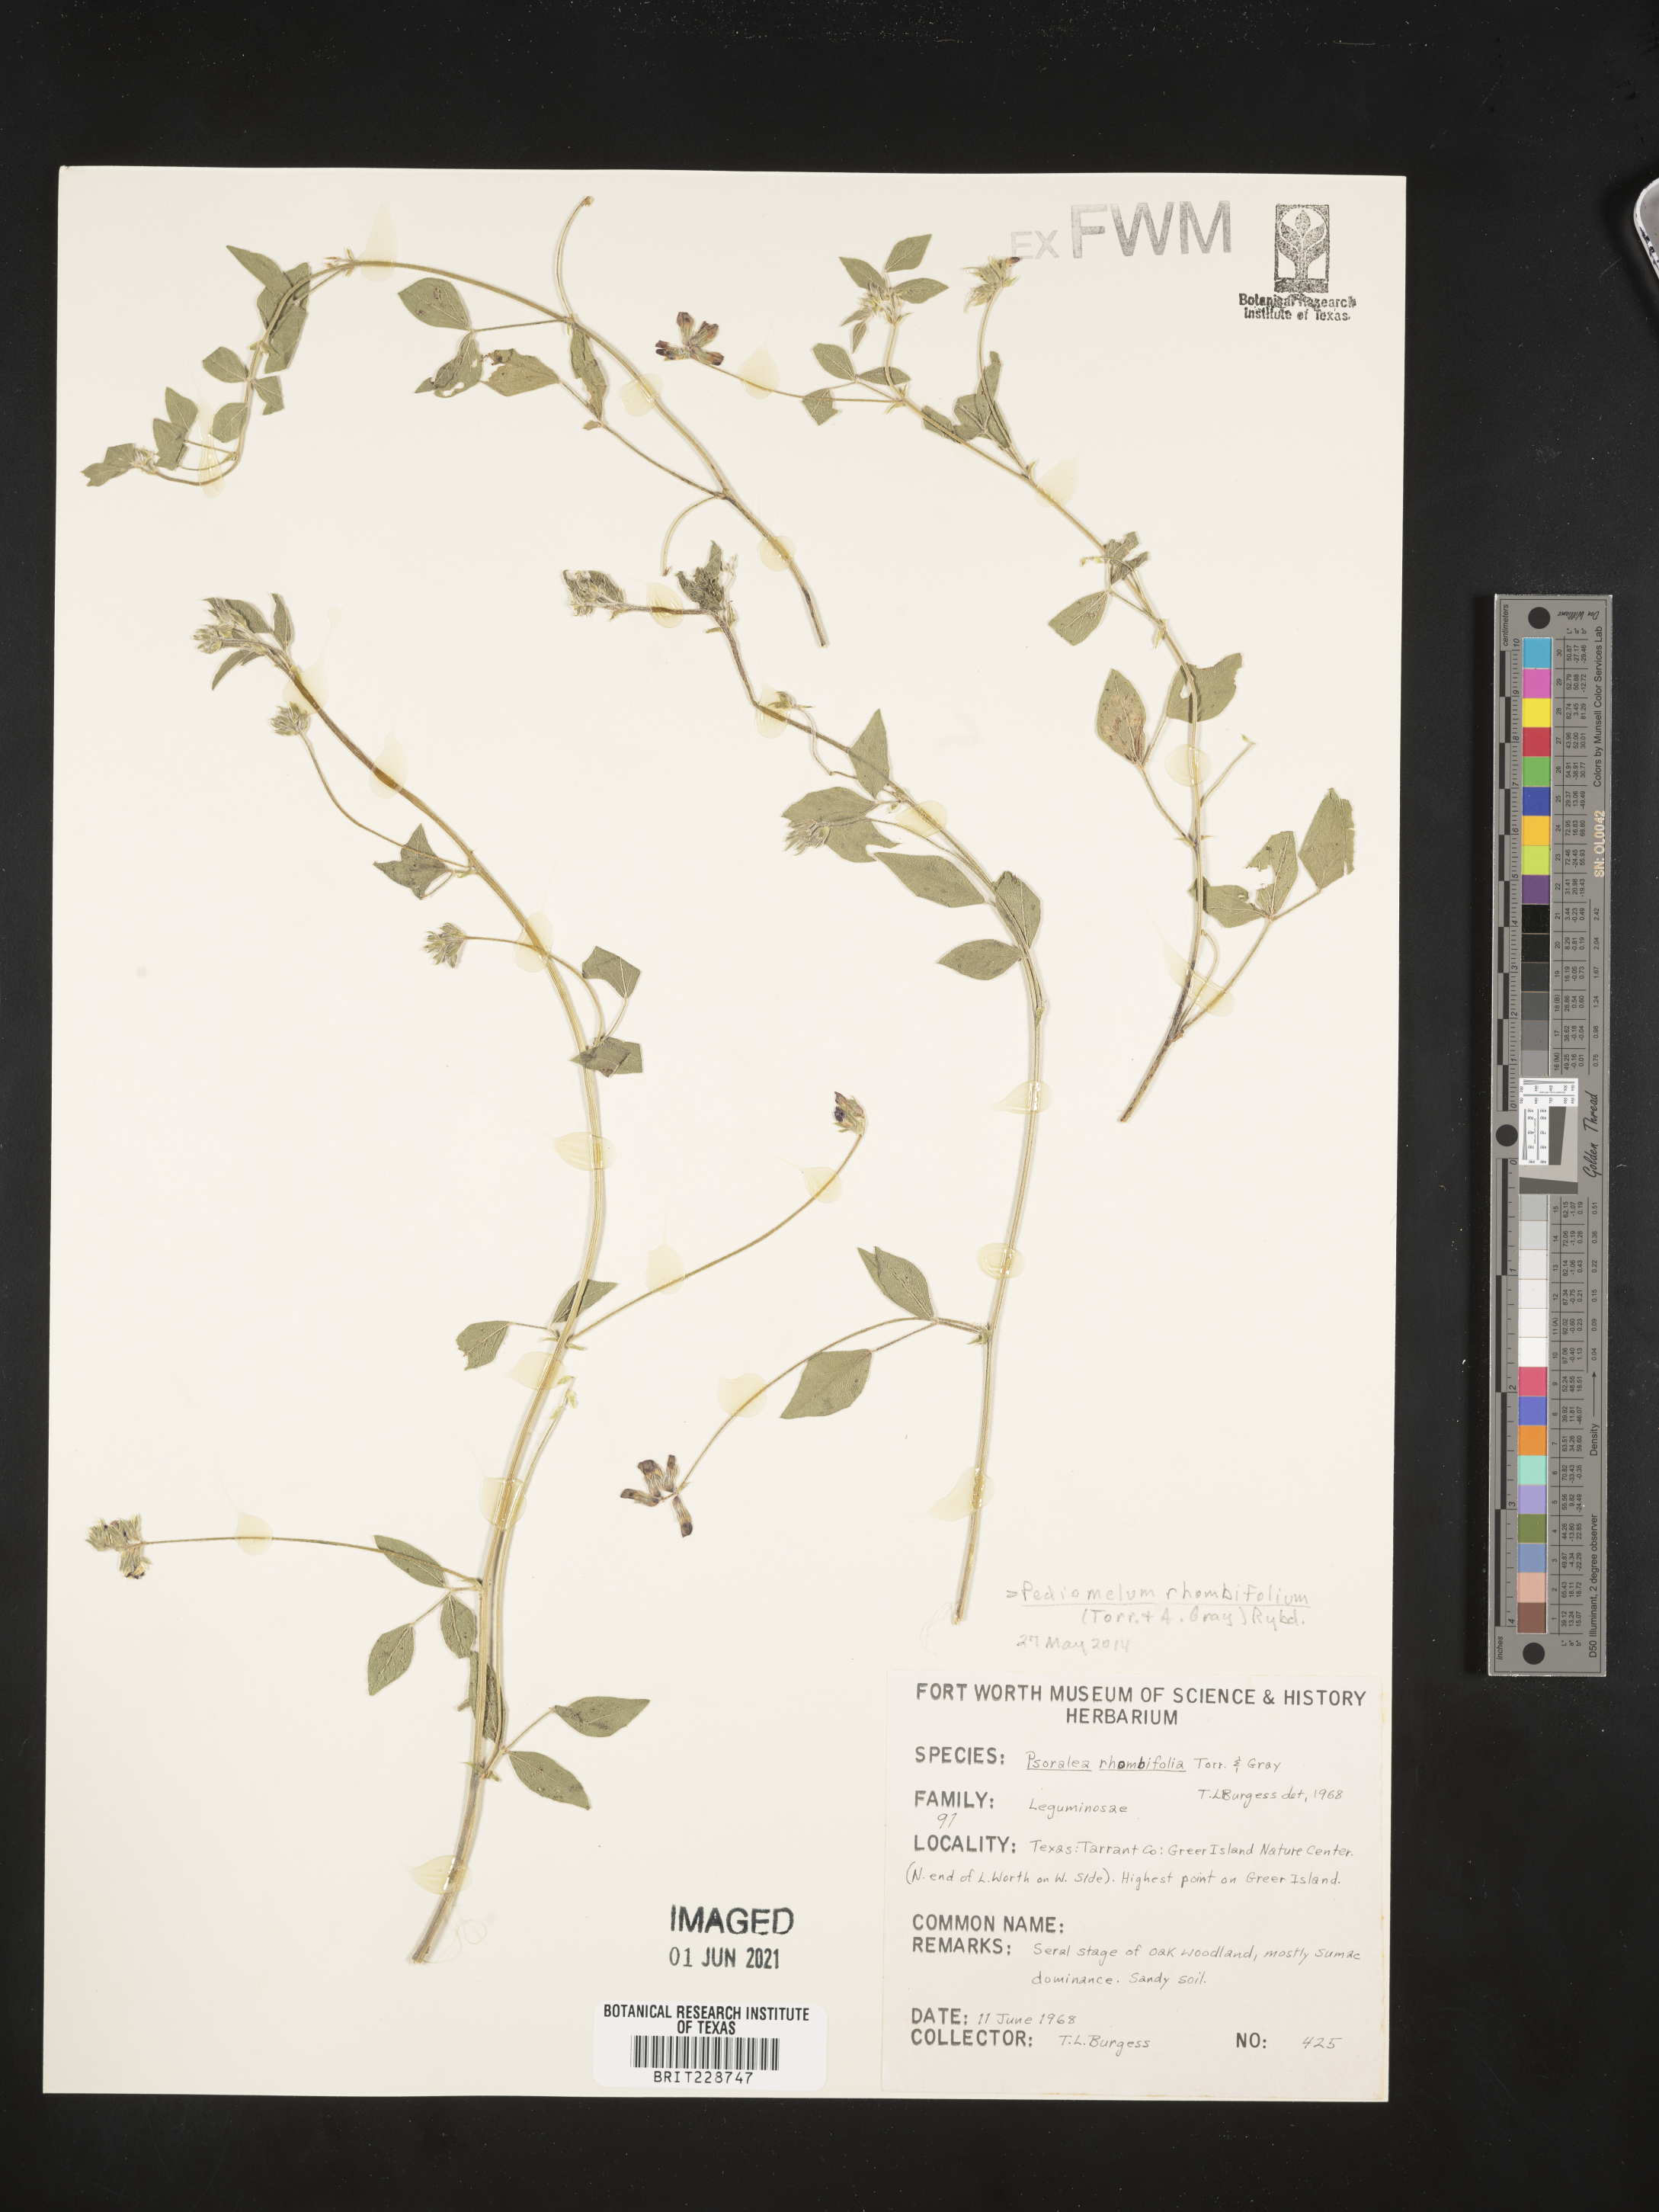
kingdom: Plantae
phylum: Tracheophyta
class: Magnoliopsida
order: Fabales
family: Fabaceae
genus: Pediomelum
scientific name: Pediomelum rhombifolium
